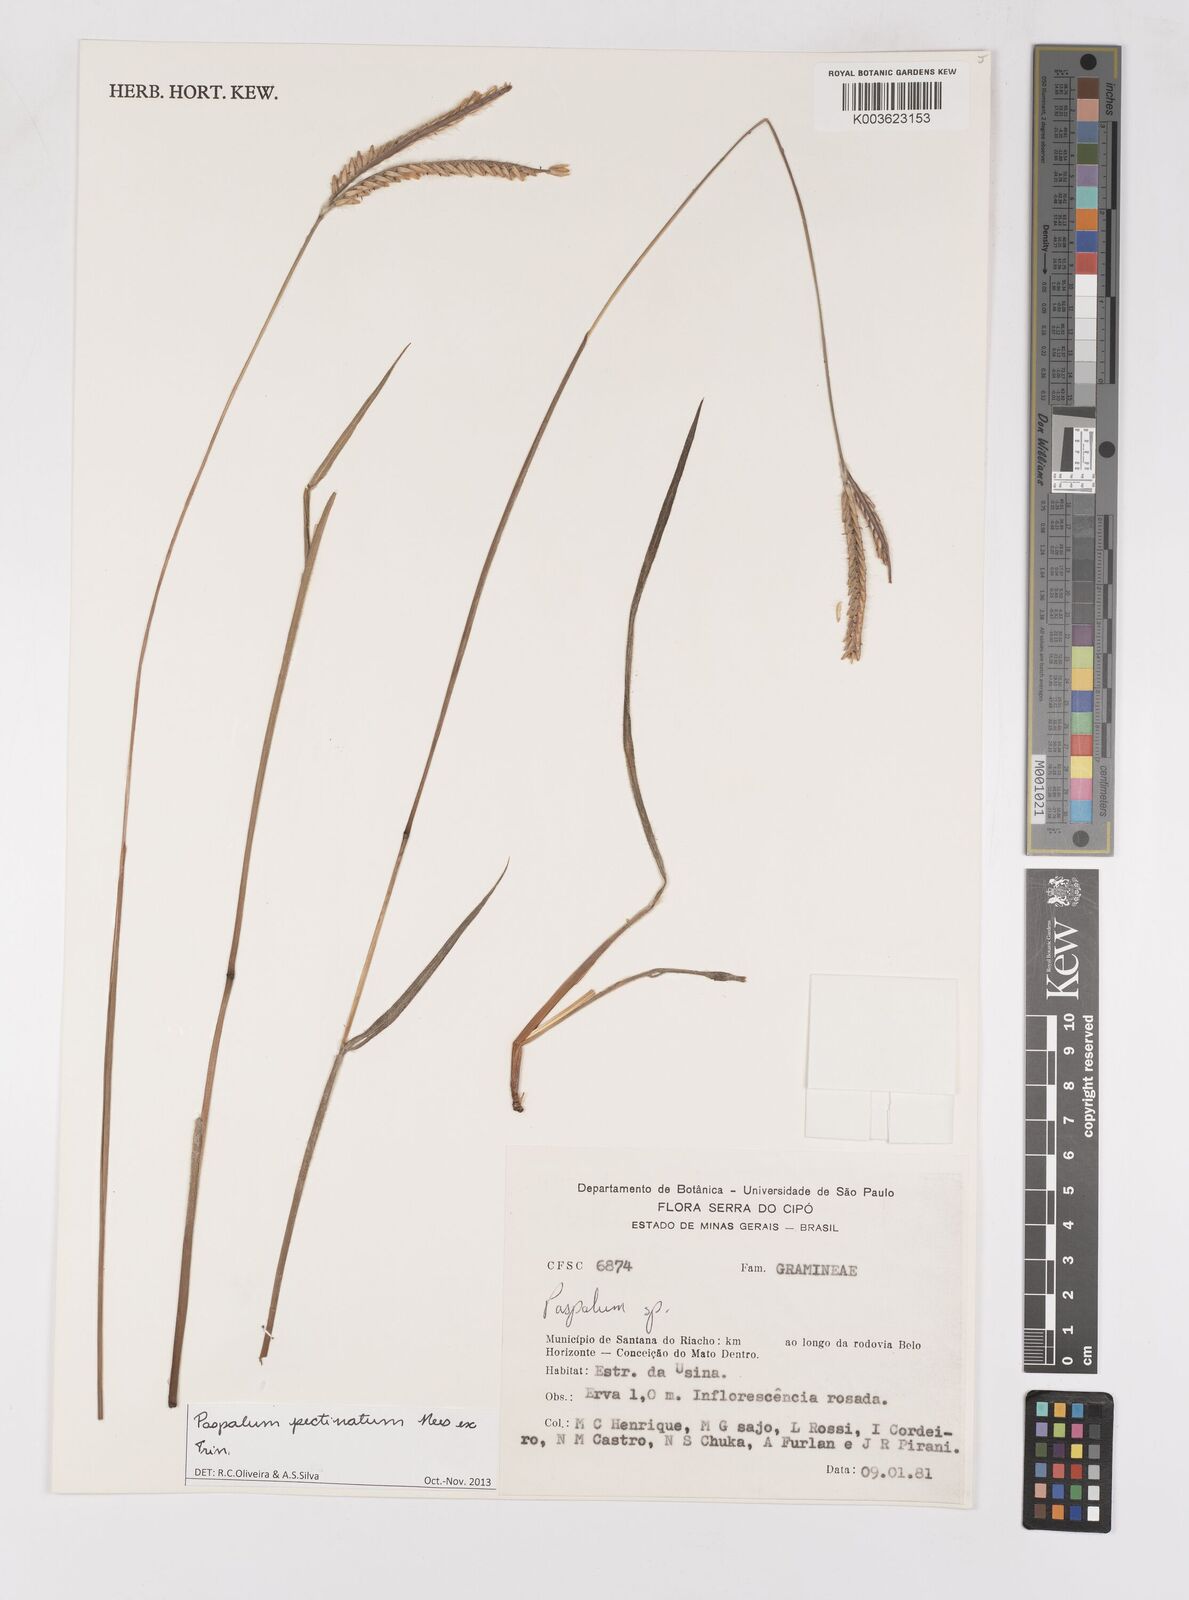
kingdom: Plantae
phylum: Tracheophyta
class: Liliopsida
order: Poales
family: Poaceae
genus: Paspalum
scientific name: Paspalum pectinatum
